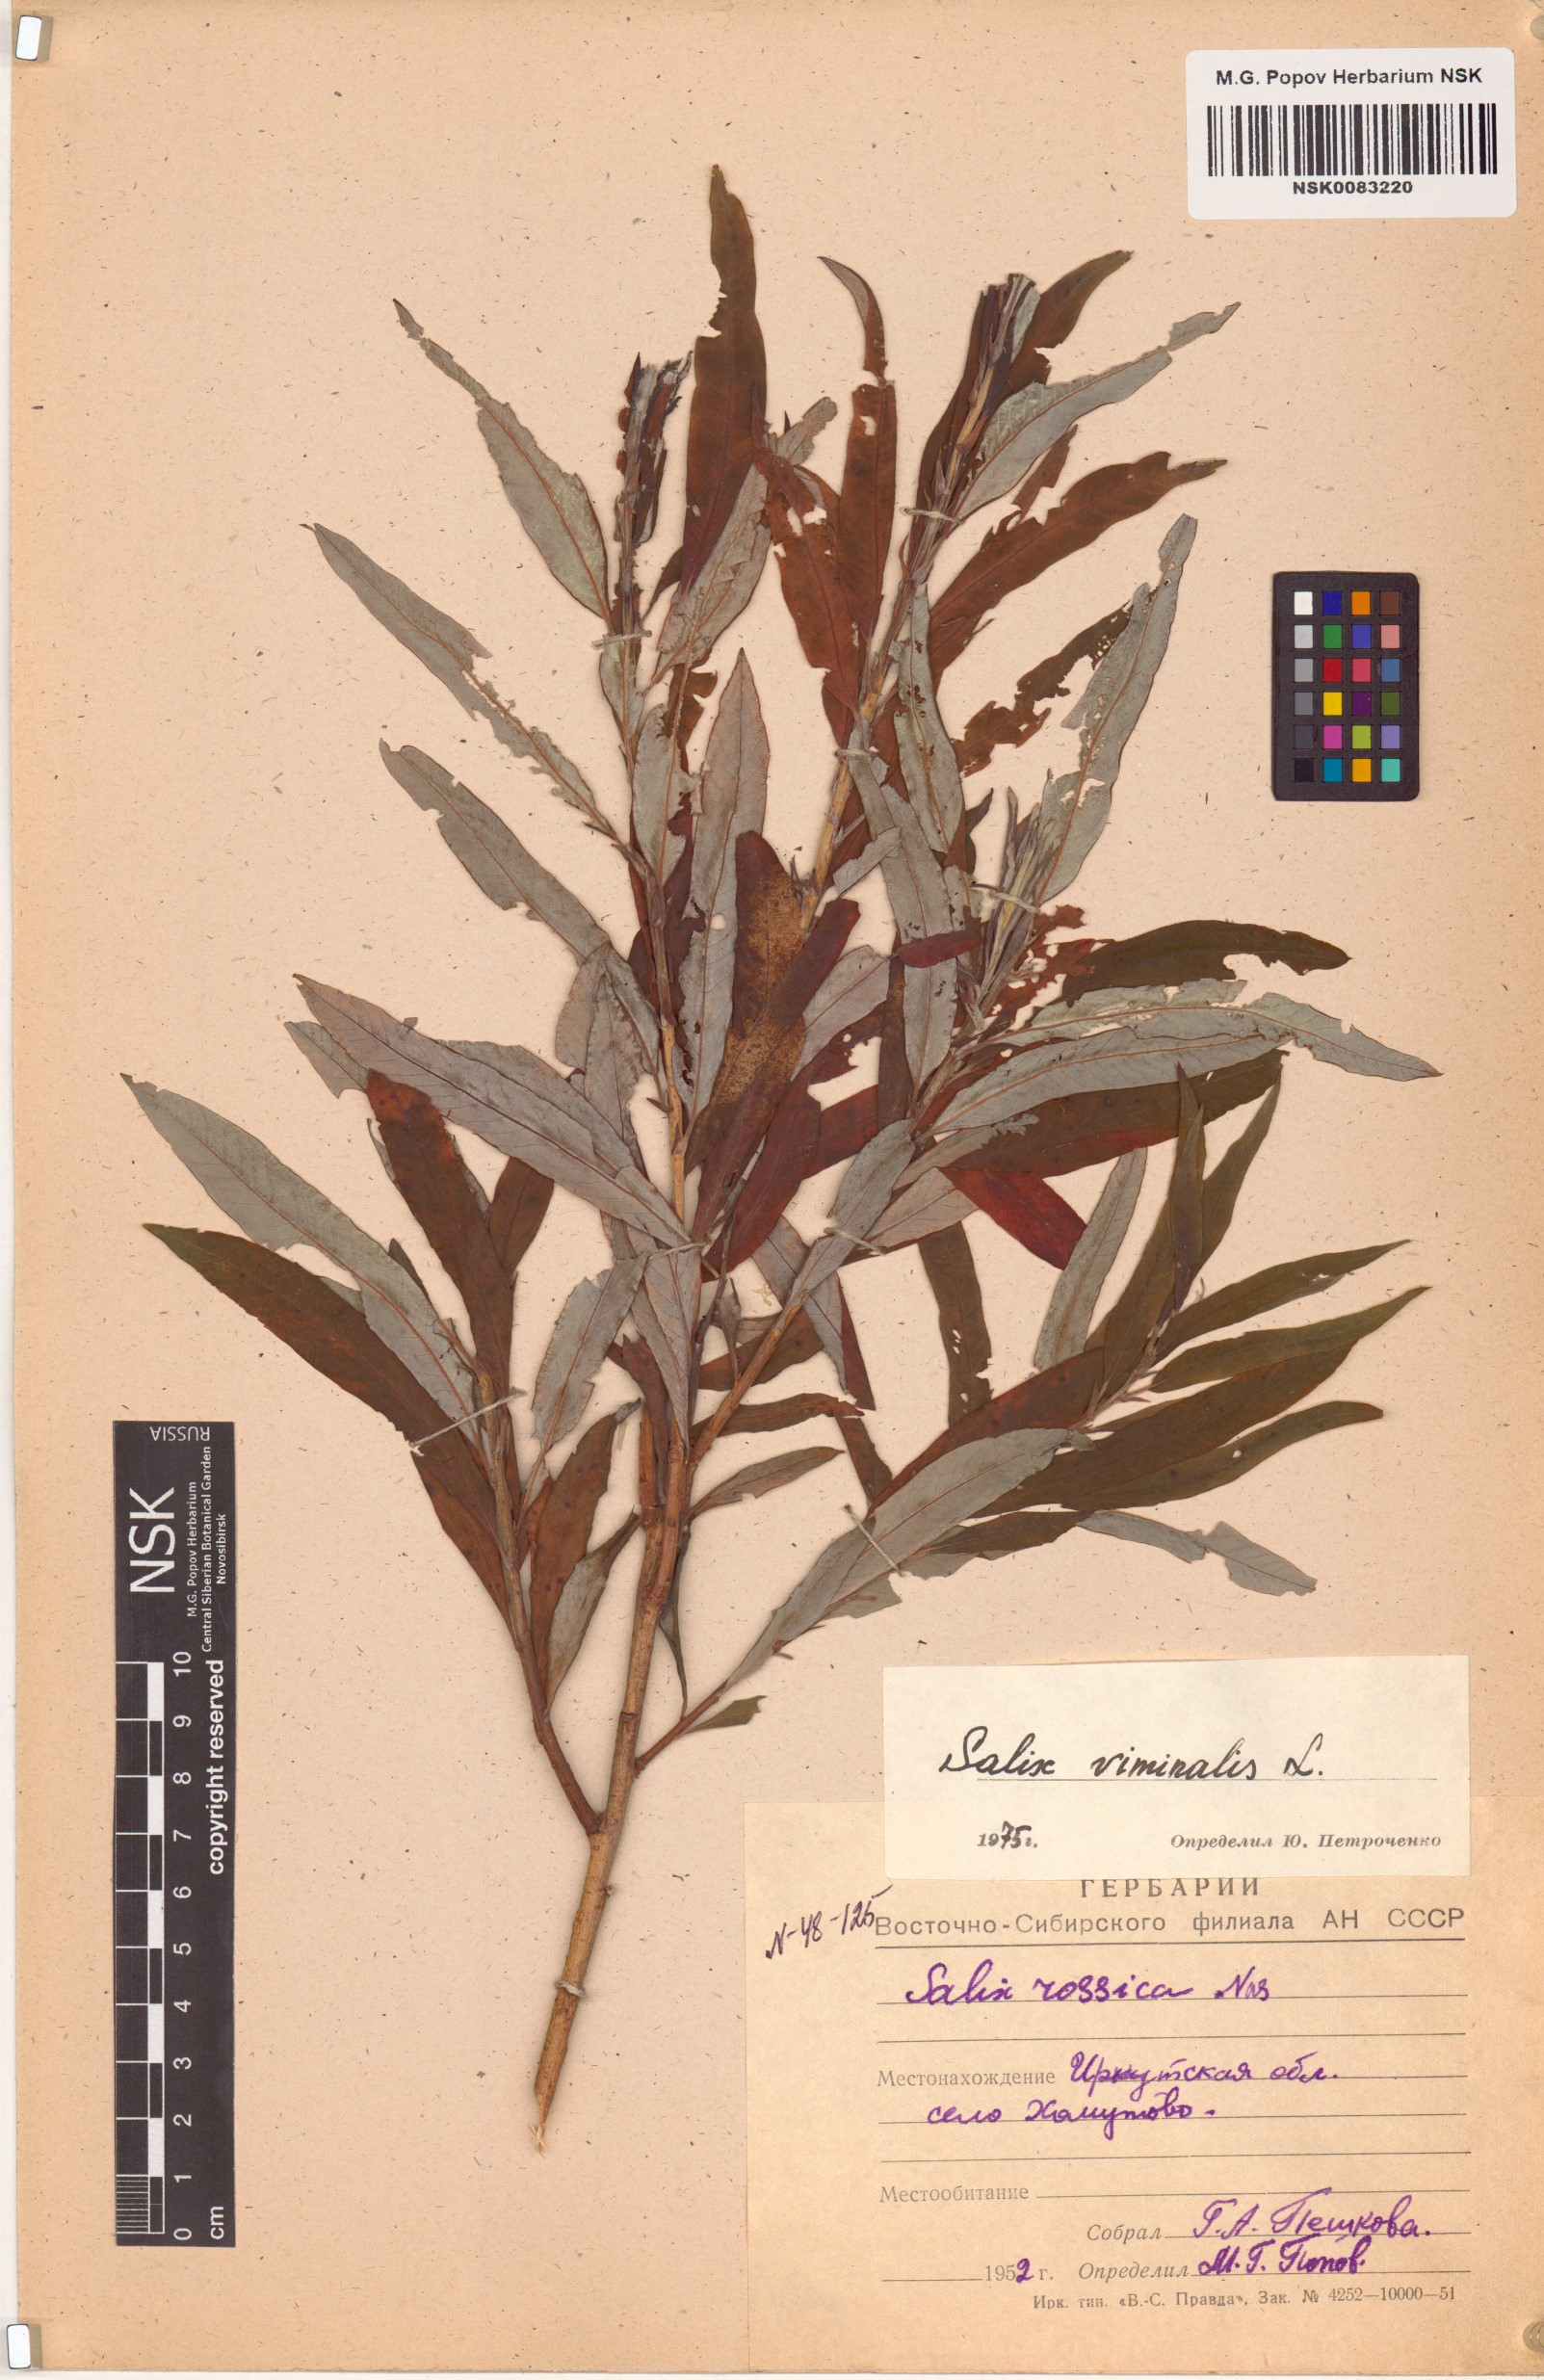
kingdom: Plantae
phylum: Tracheophyta
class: Magnoliopsida
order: Malpighiales
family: Salicaceae
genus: Salix
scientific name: Salix viminalis
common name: Osier
